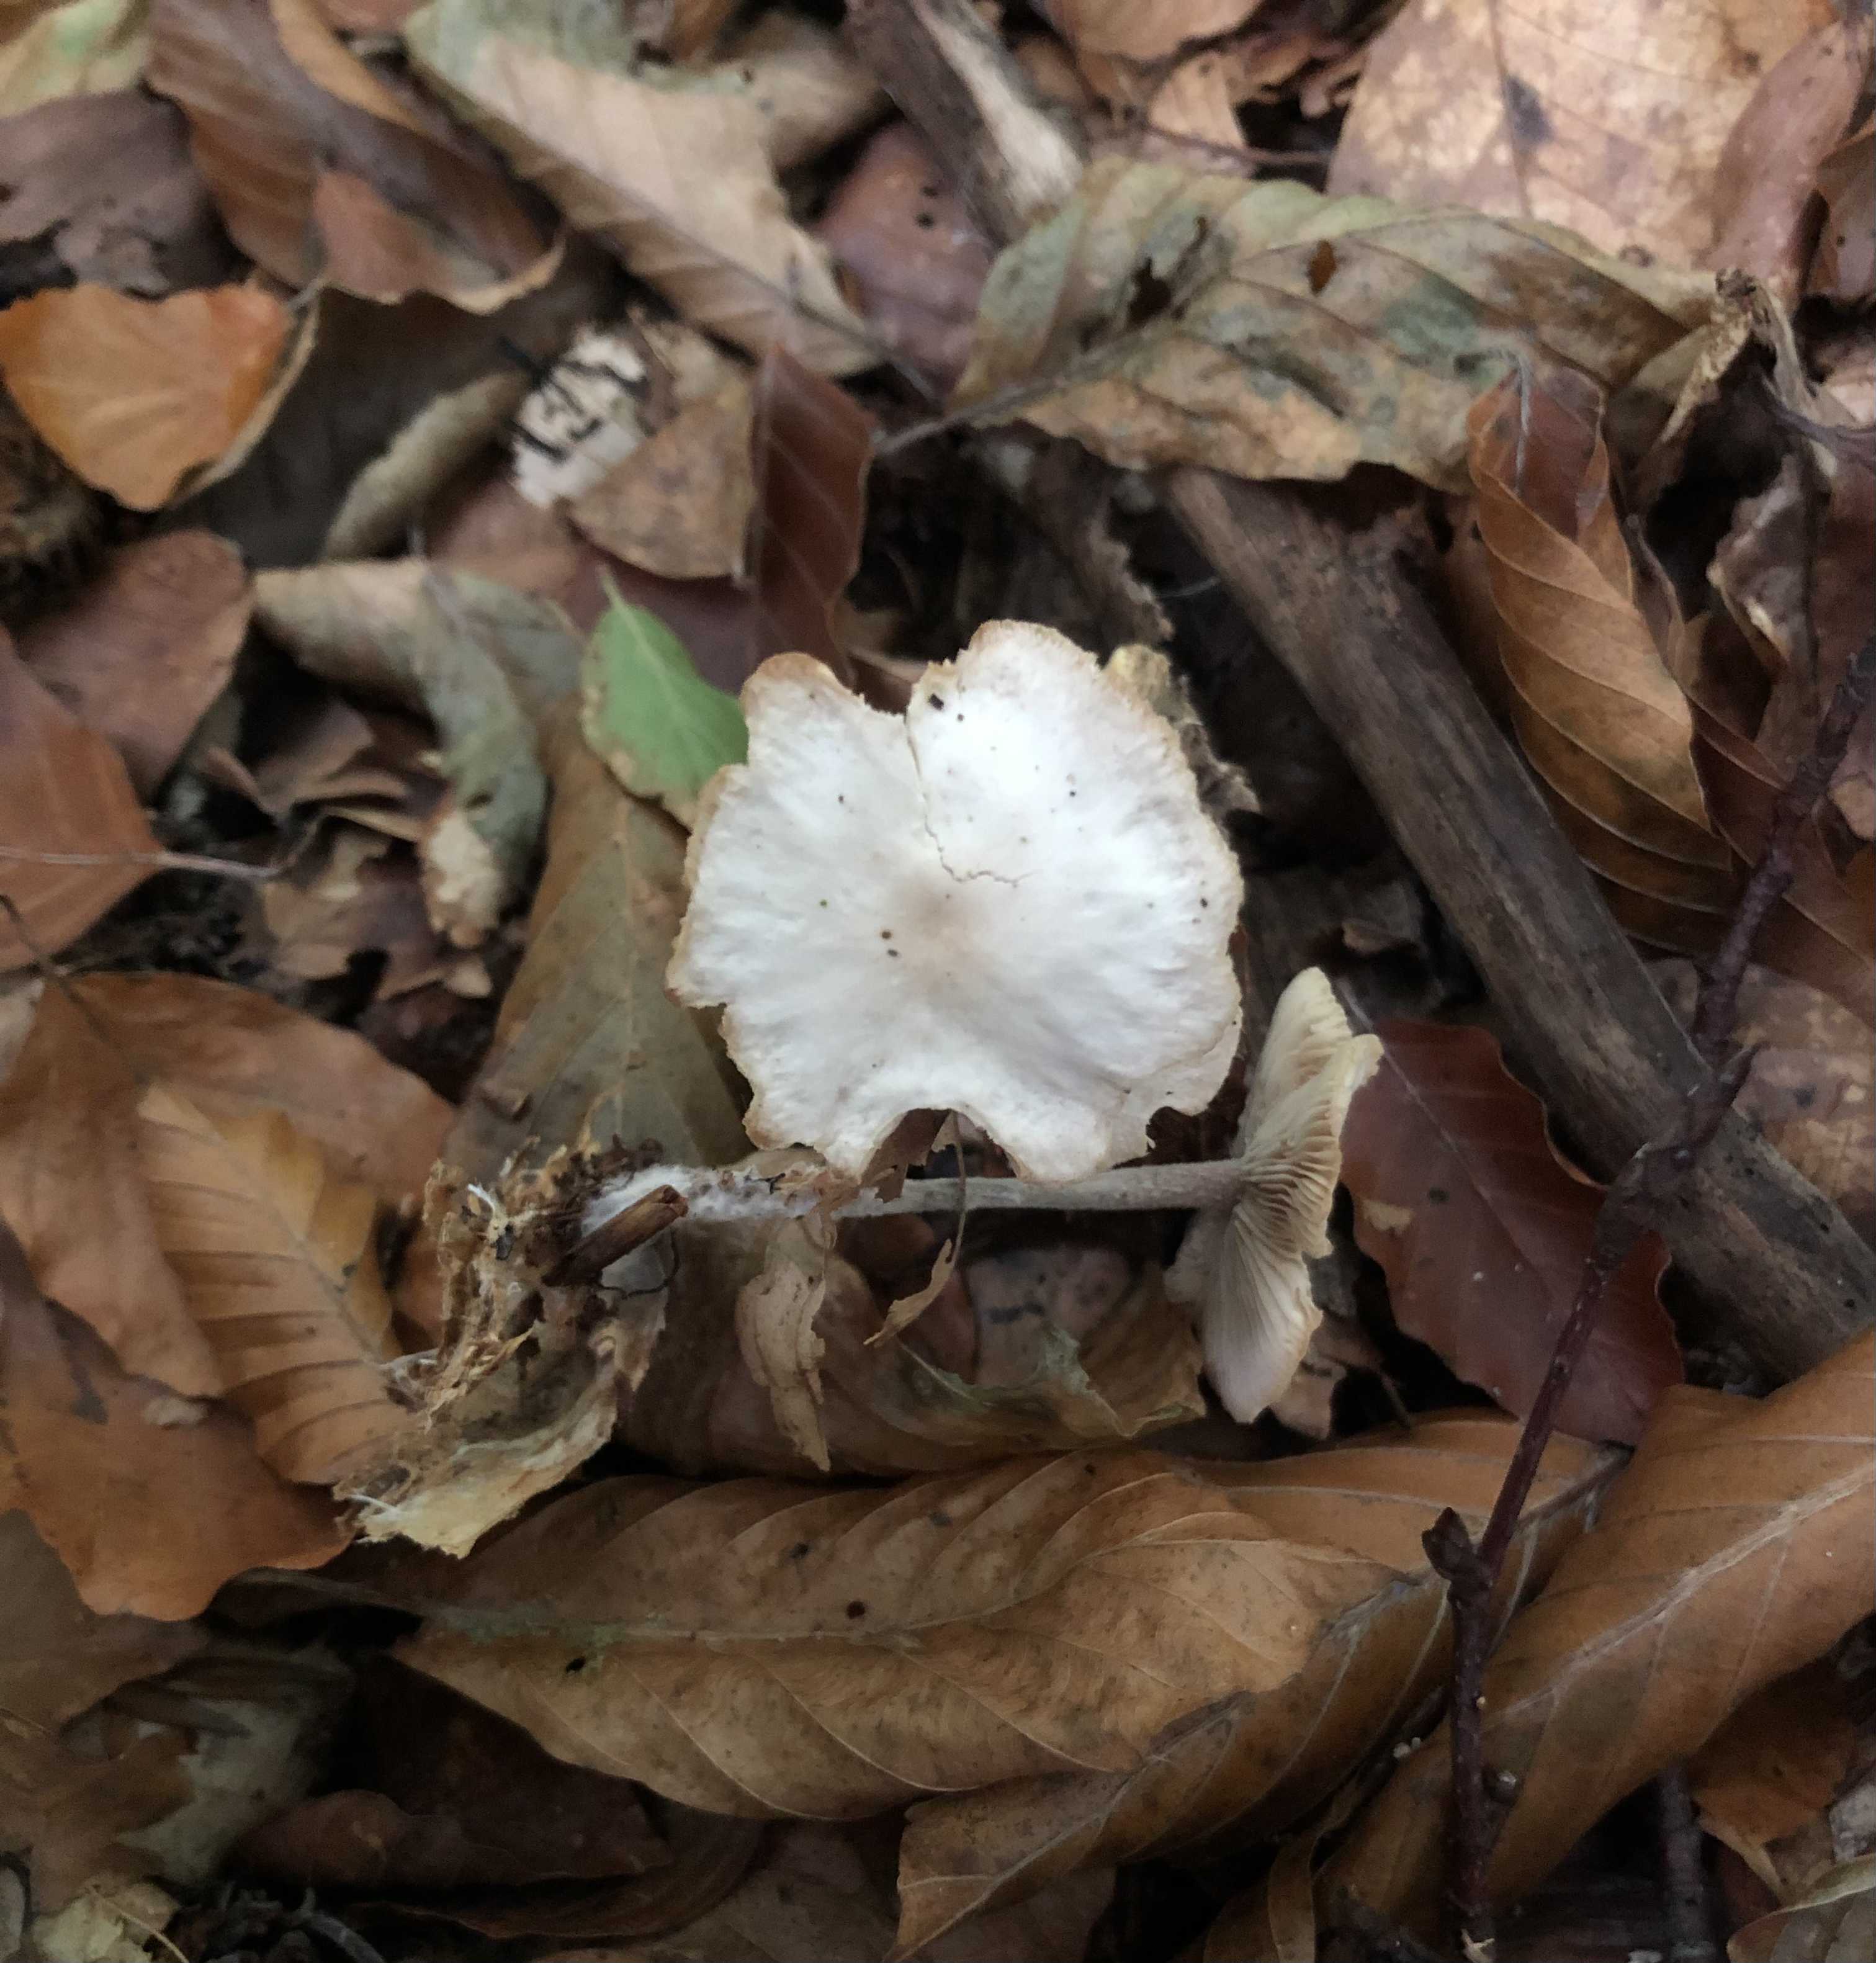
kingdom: Fungi
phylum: Basidiomycota
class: Agaricomycetes
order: Agaricales
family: Omphalotaceae
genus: Collybiopsis
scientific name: Collybiopsis confluens
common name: knippe-fladhat
